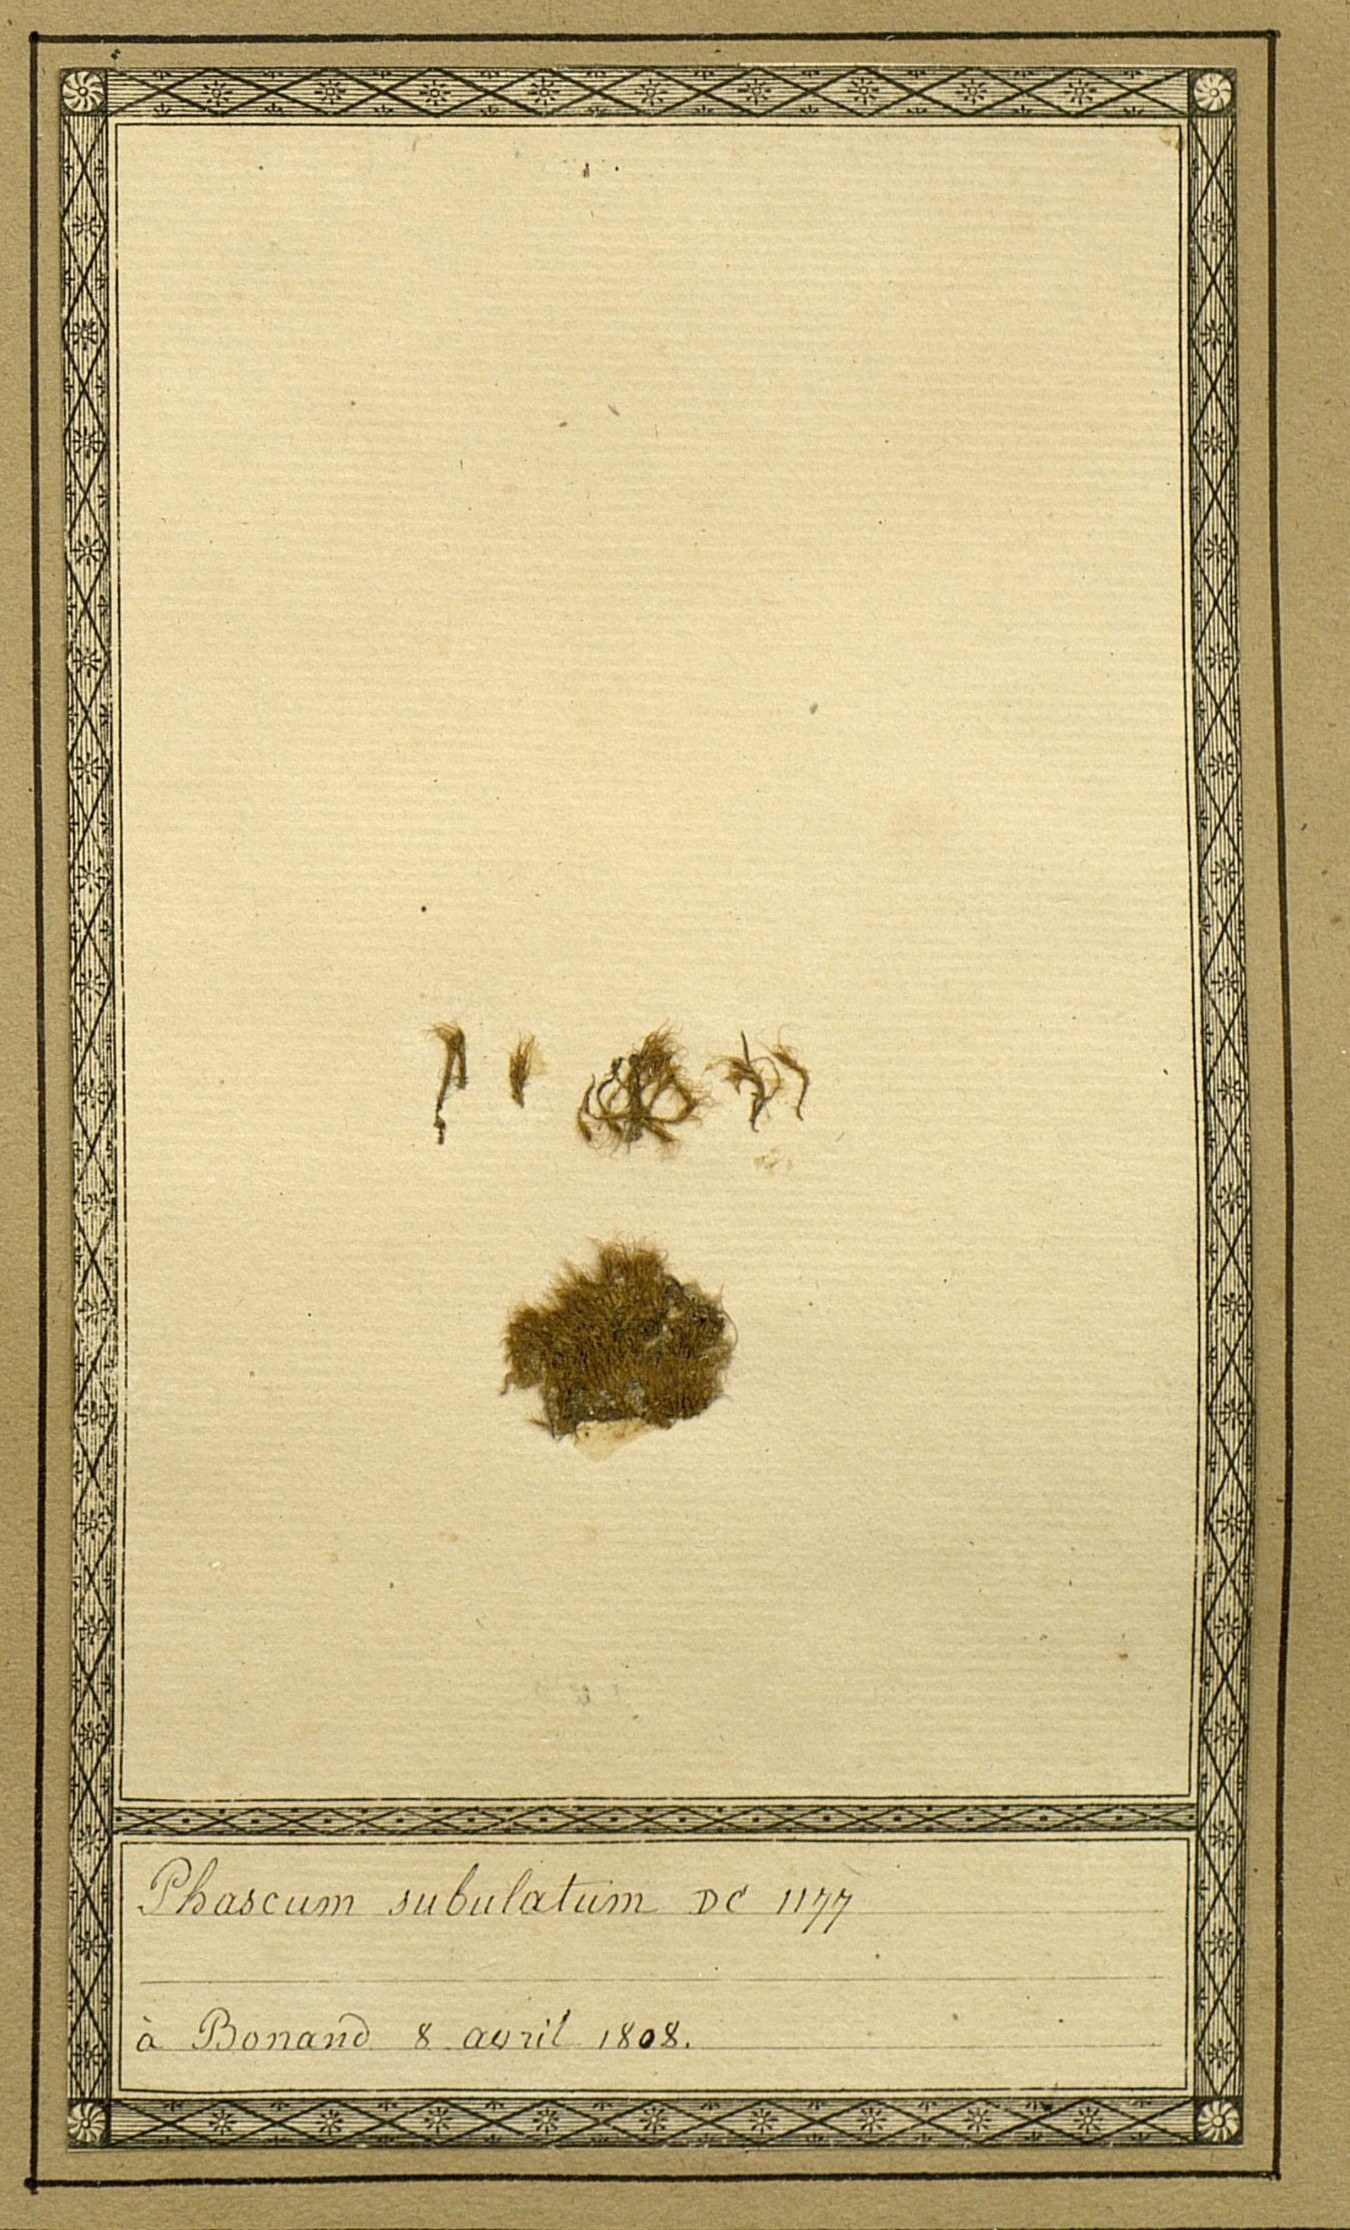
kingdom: Plantae
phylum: Bryophyta
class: Bryopsida
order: Dicranales
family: Ditrichaceae
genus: Pleuridium
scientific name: Pleuridium
